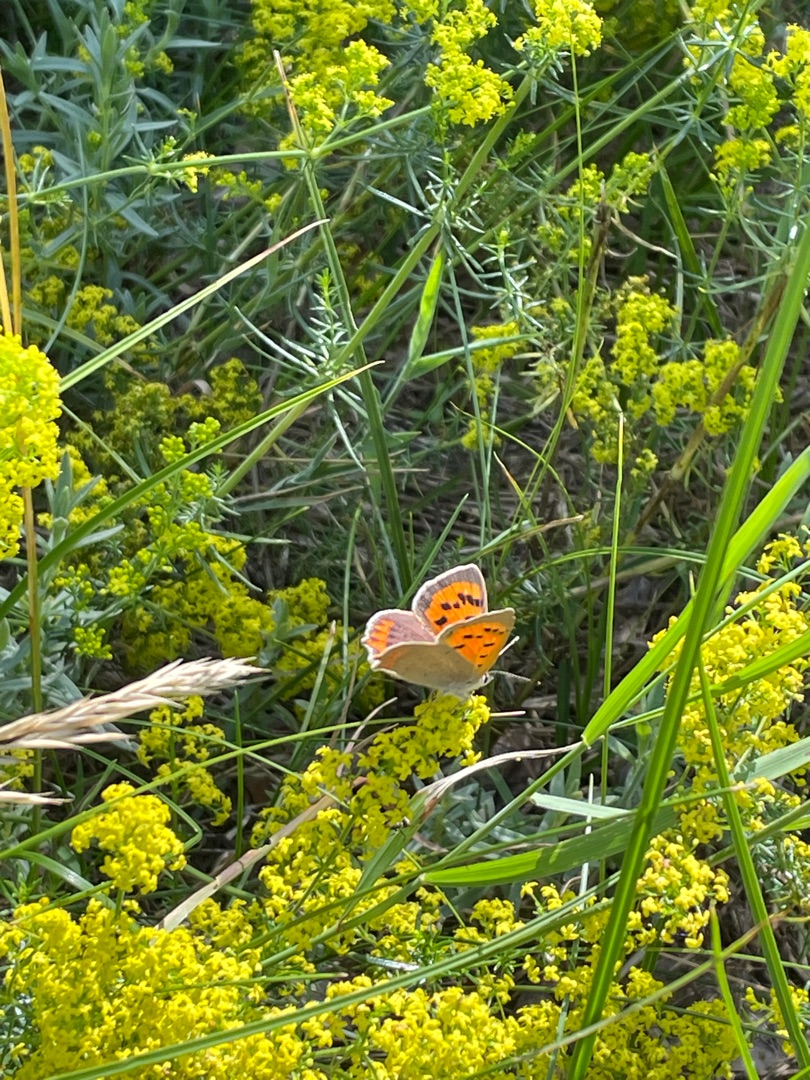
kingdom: Animalia
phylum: Arthropoda
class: Insecta
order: Lepidoptera
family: Lycaenidae
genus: Lycaena
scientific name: Lycaena phlaeas
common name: Lille ildfugl
